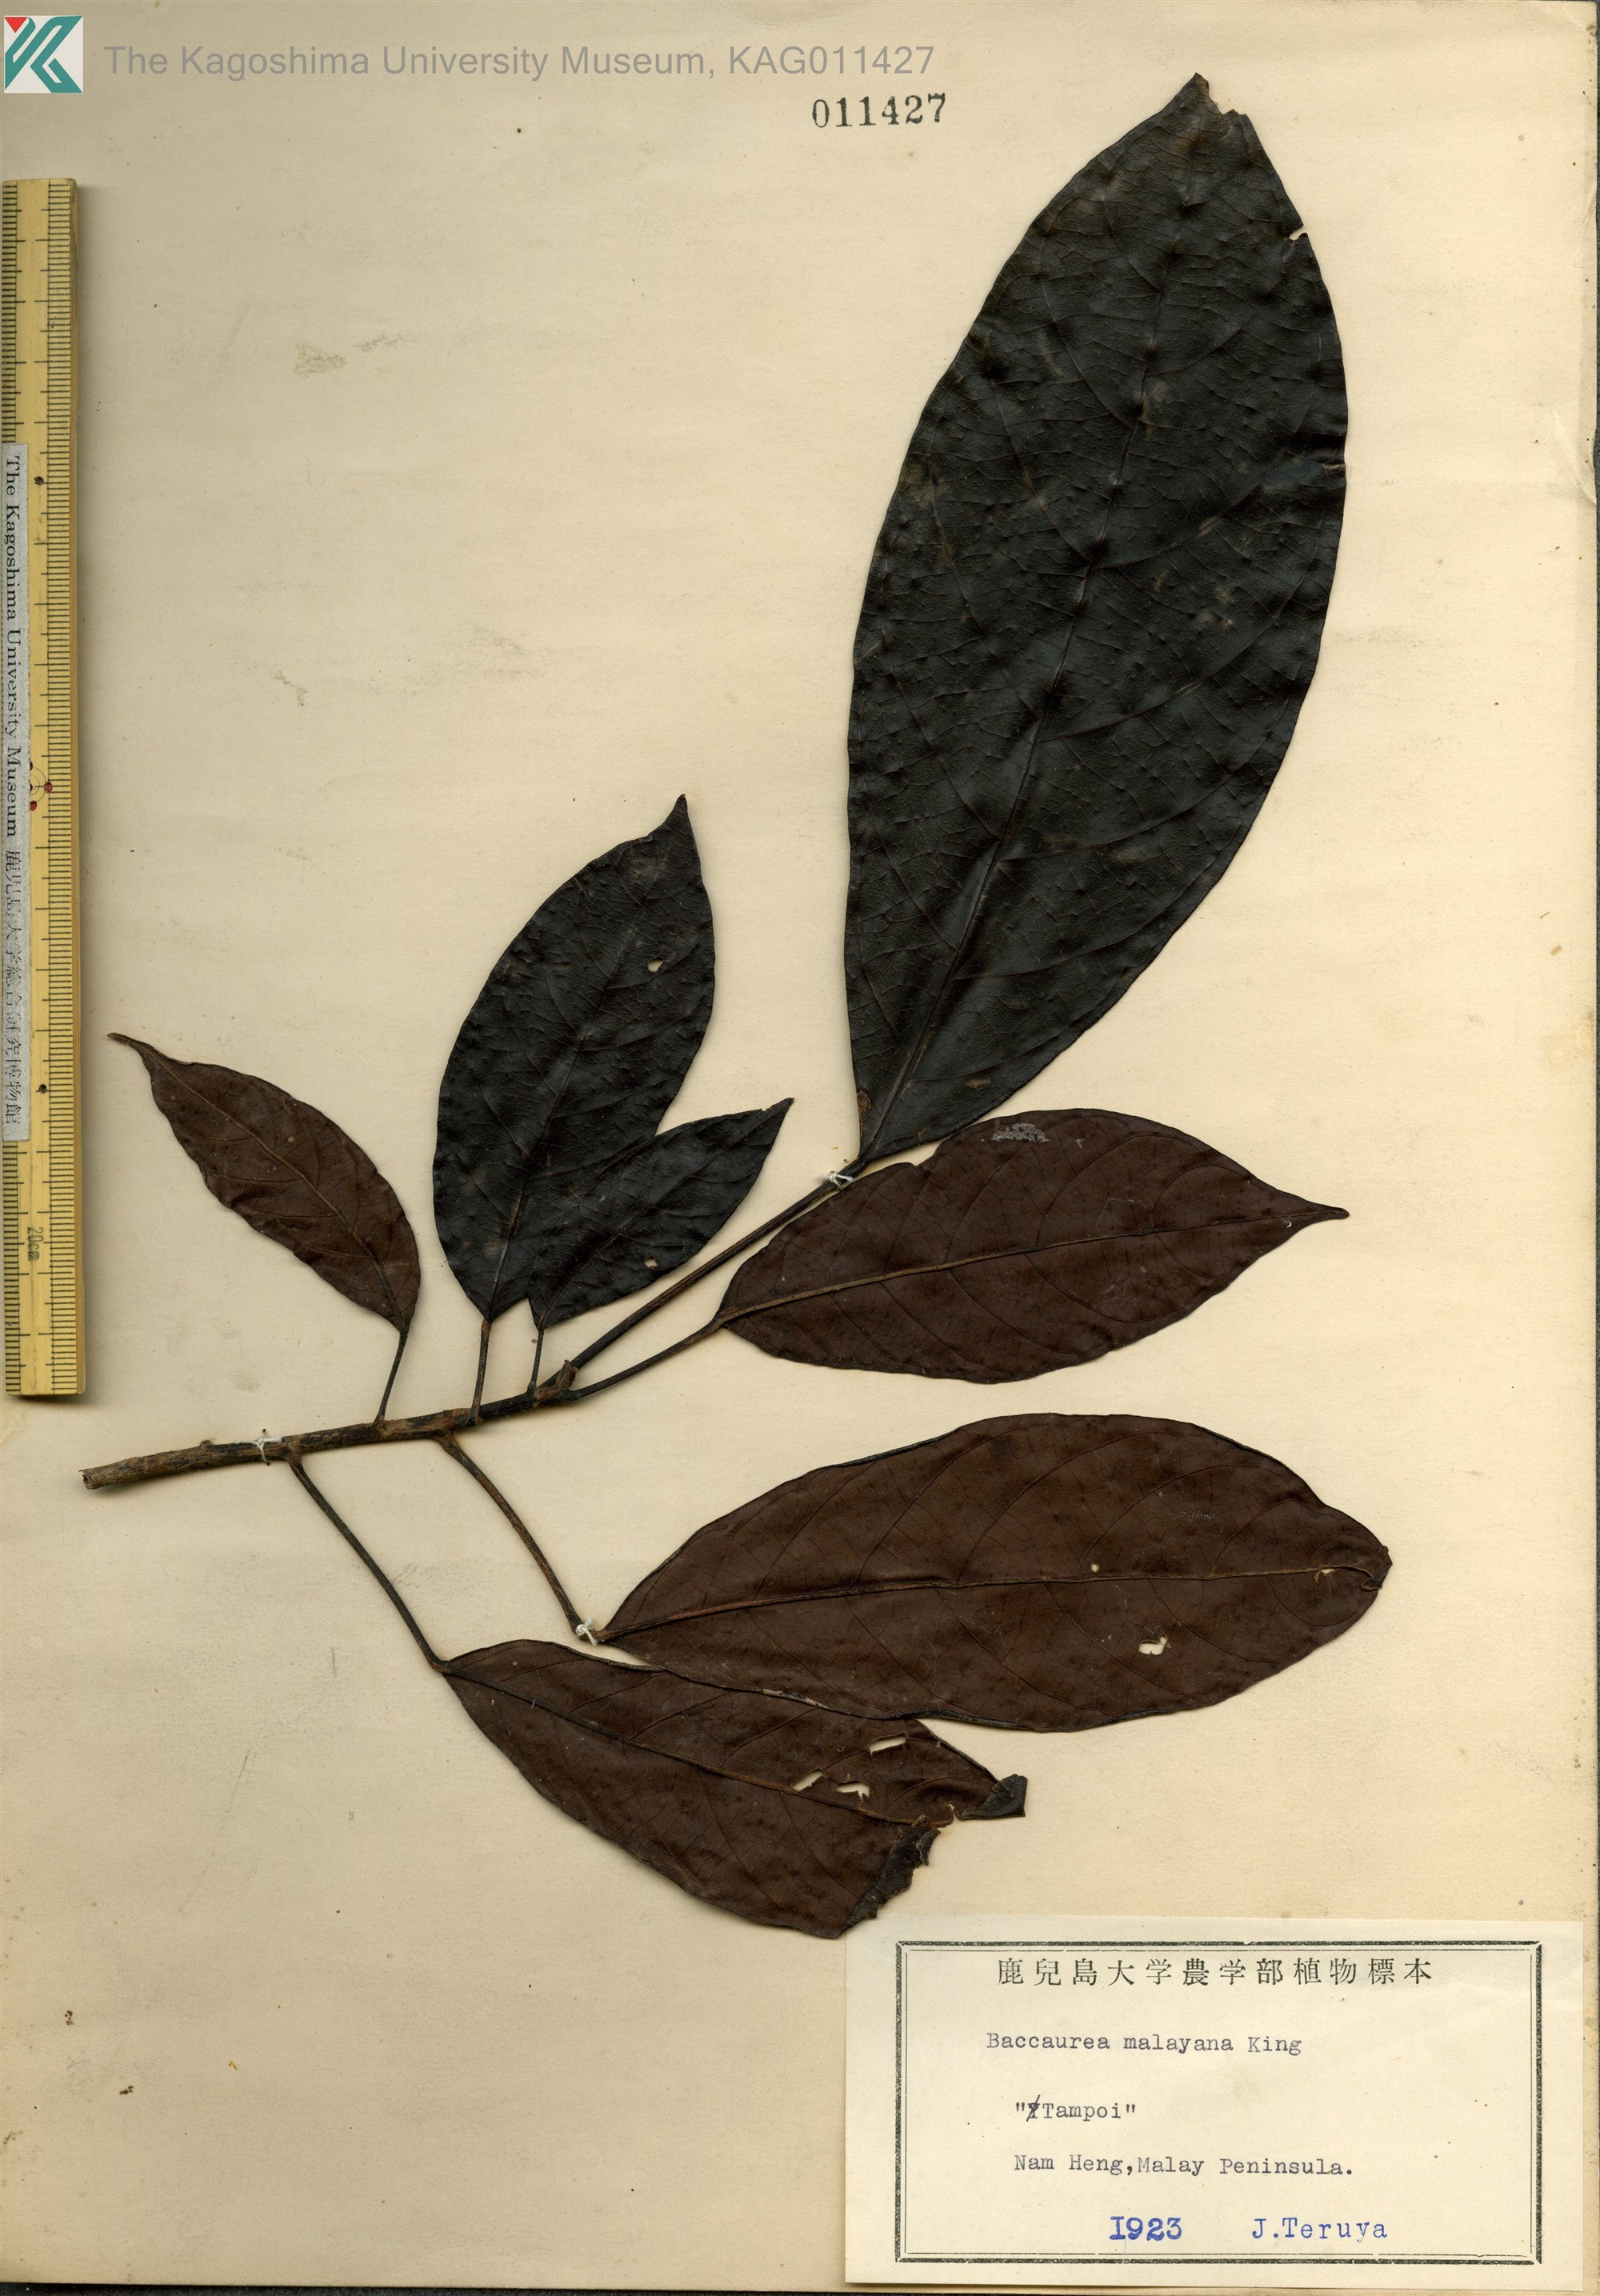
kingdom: Plantae
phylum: Tracheophyta
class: Magnoliopsida
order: Malpighiales
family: Phyllanthaceae
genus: Baccaurea
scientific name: Baccaurea malayana
